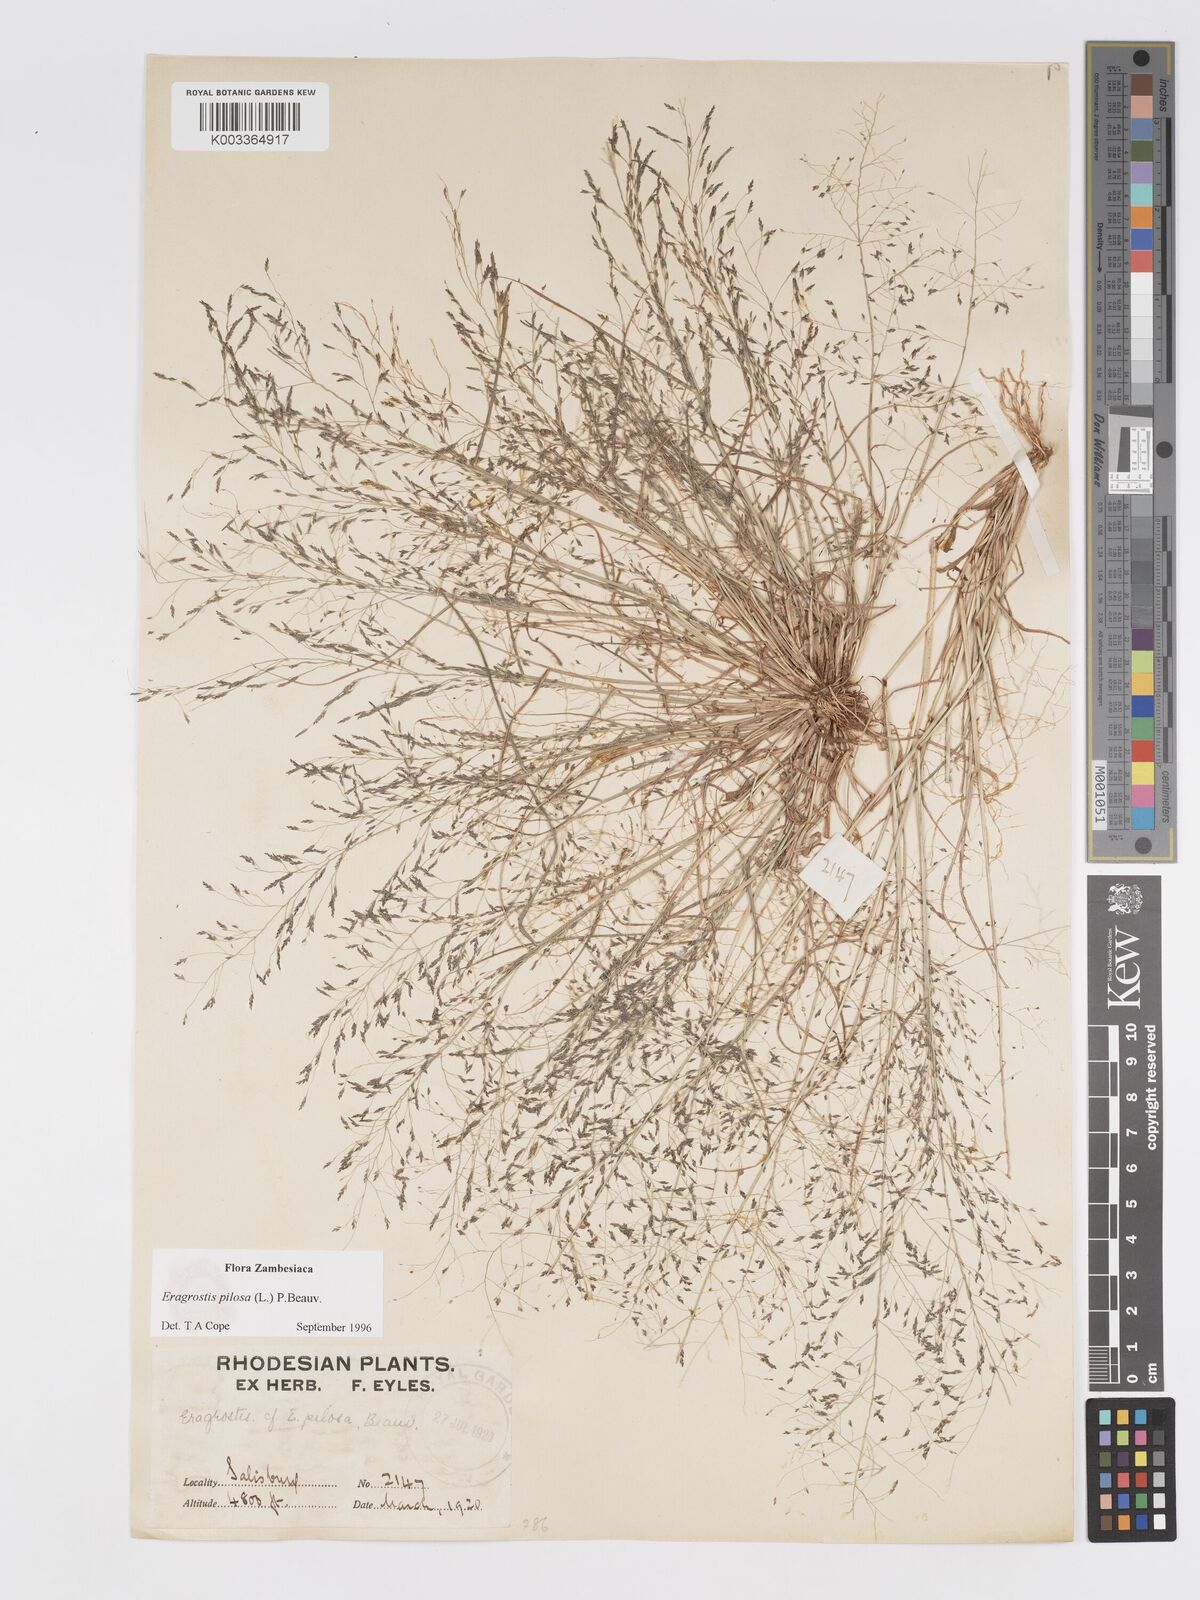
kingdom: Plantae
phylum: Tracheophyta
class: Liliopsida
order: Poales
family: Poaceae
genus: Eragrostis
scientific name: Eragrostis pilosa
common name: Indian lovegrass
